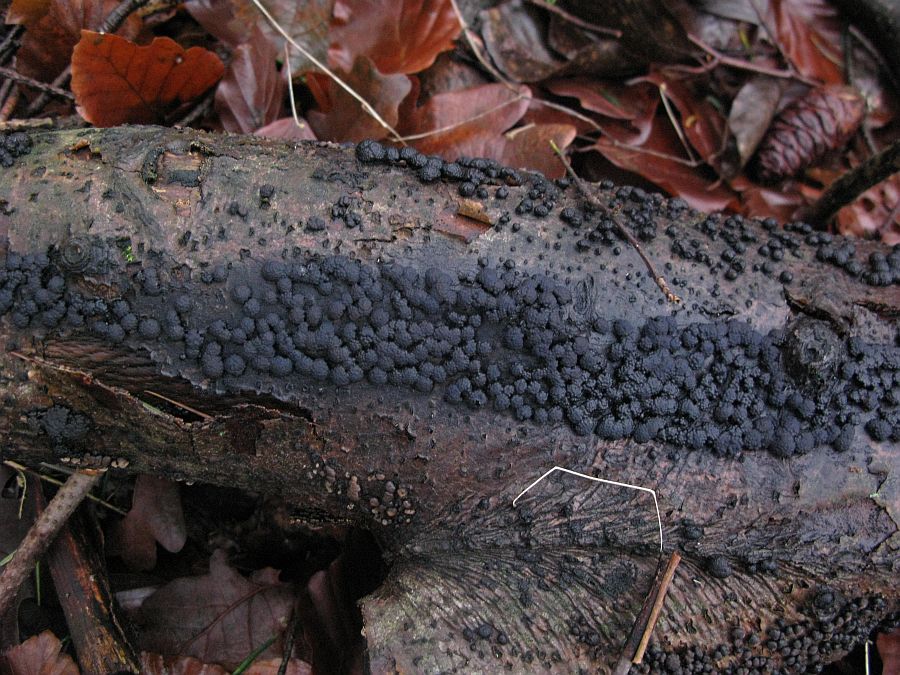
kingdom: Fungi
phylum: Ascomycota
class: Sordariomycetes
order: Xylariales
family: Hypoxylaceae
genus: Jackrogersella
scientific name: Jackrogersella cohaerens
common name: sammenflydende kulbær
